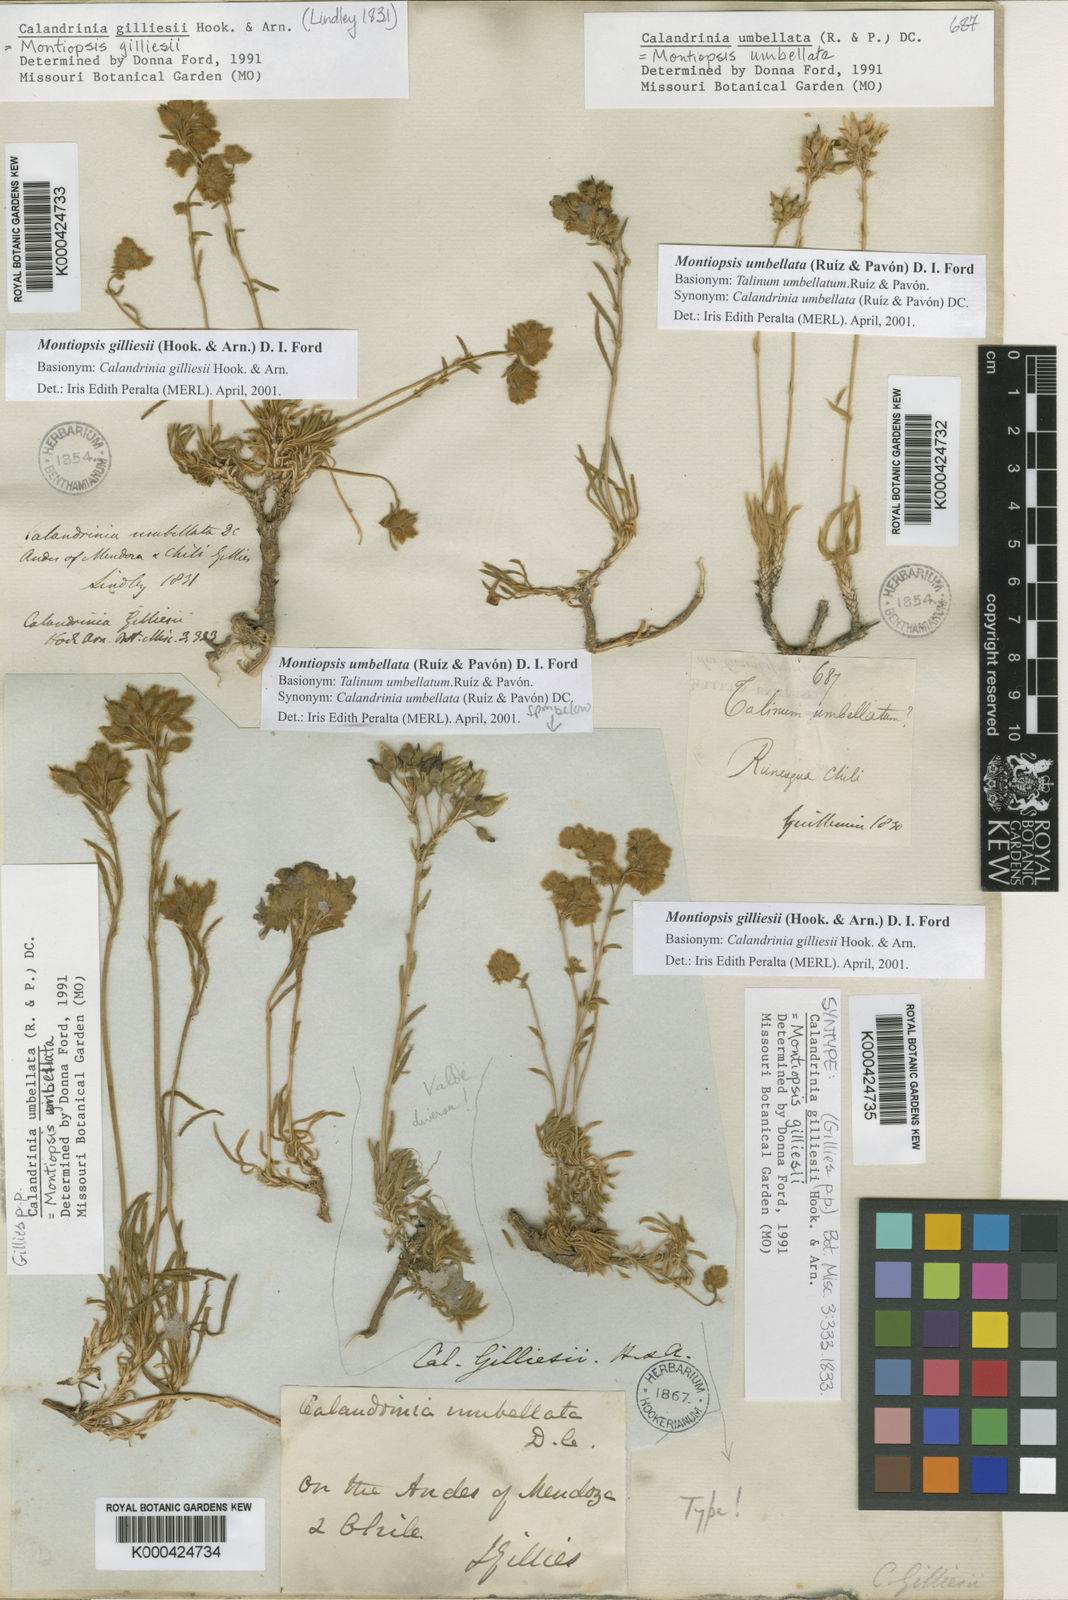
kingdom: Plantae
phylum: Tracheophyta
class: Magnoliopsida
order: Caryophyllales
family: Montiaceae
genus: Montiopsis
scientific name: Montiopsis gilliesii
